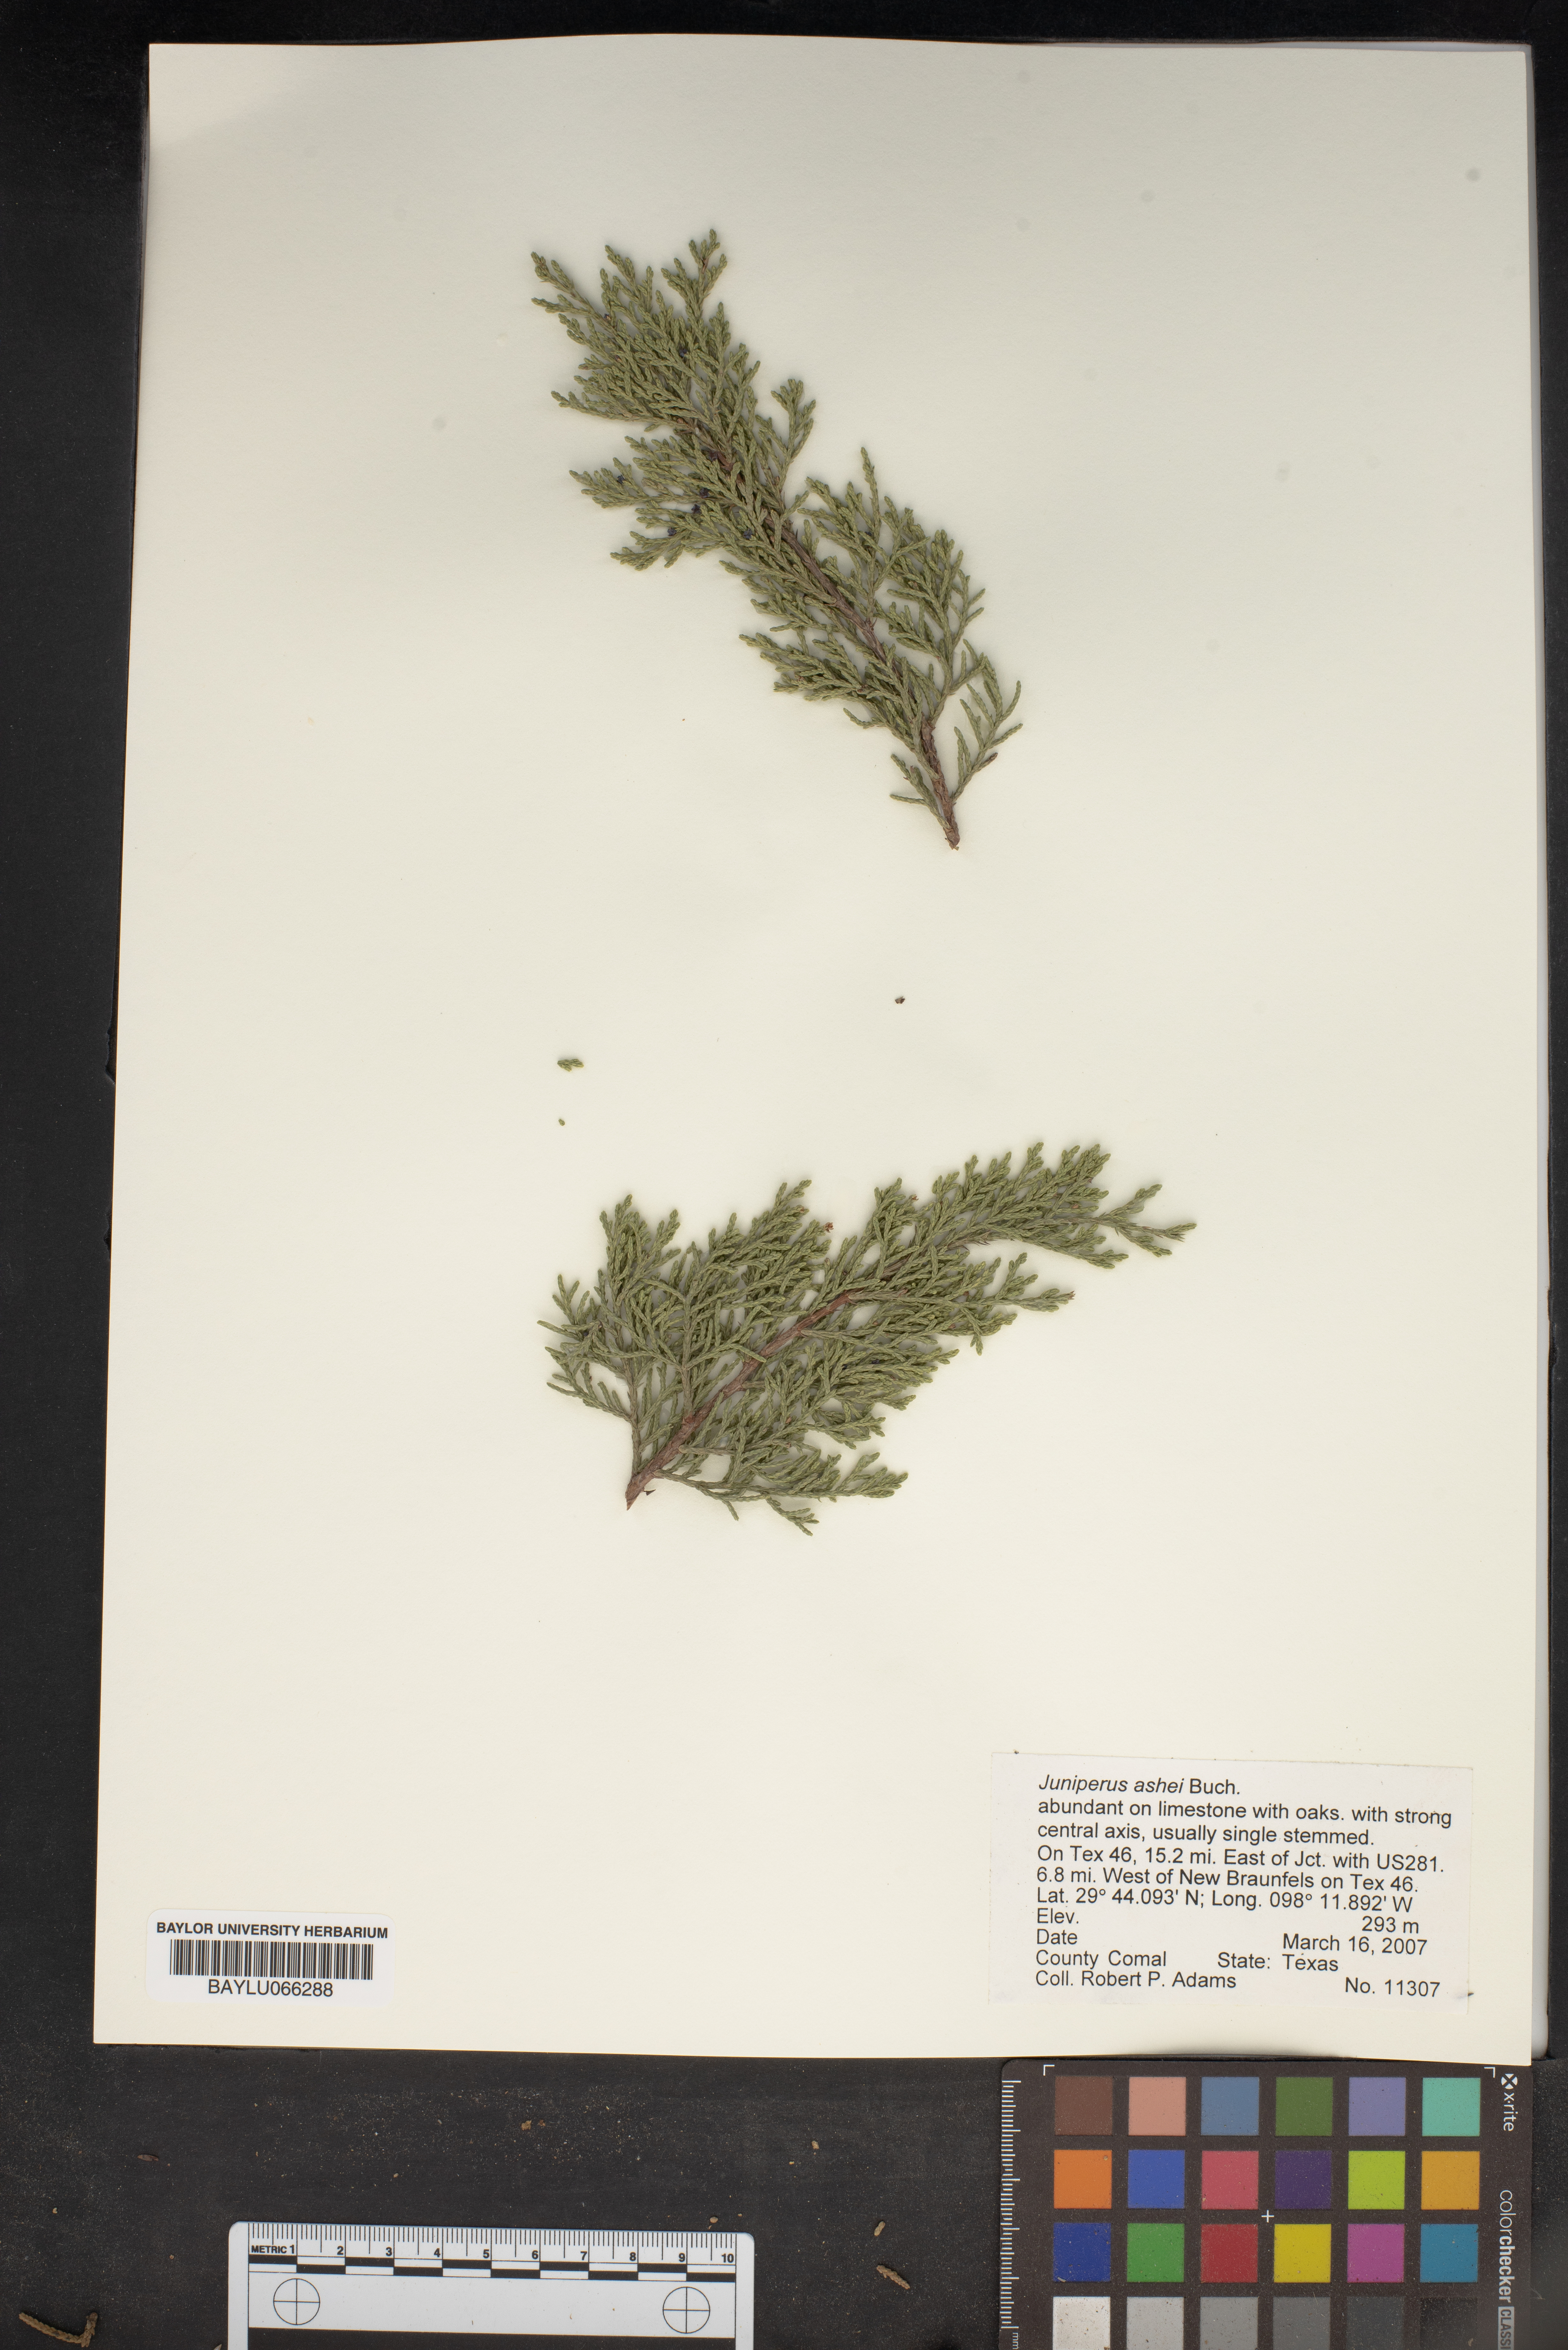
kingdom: Plantae
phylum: Tracheophyta
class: Pinopsida
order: Pinales
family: Cupressaceae
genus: Juniperus
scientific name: Juniperus ashei
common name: Mexican juniper
